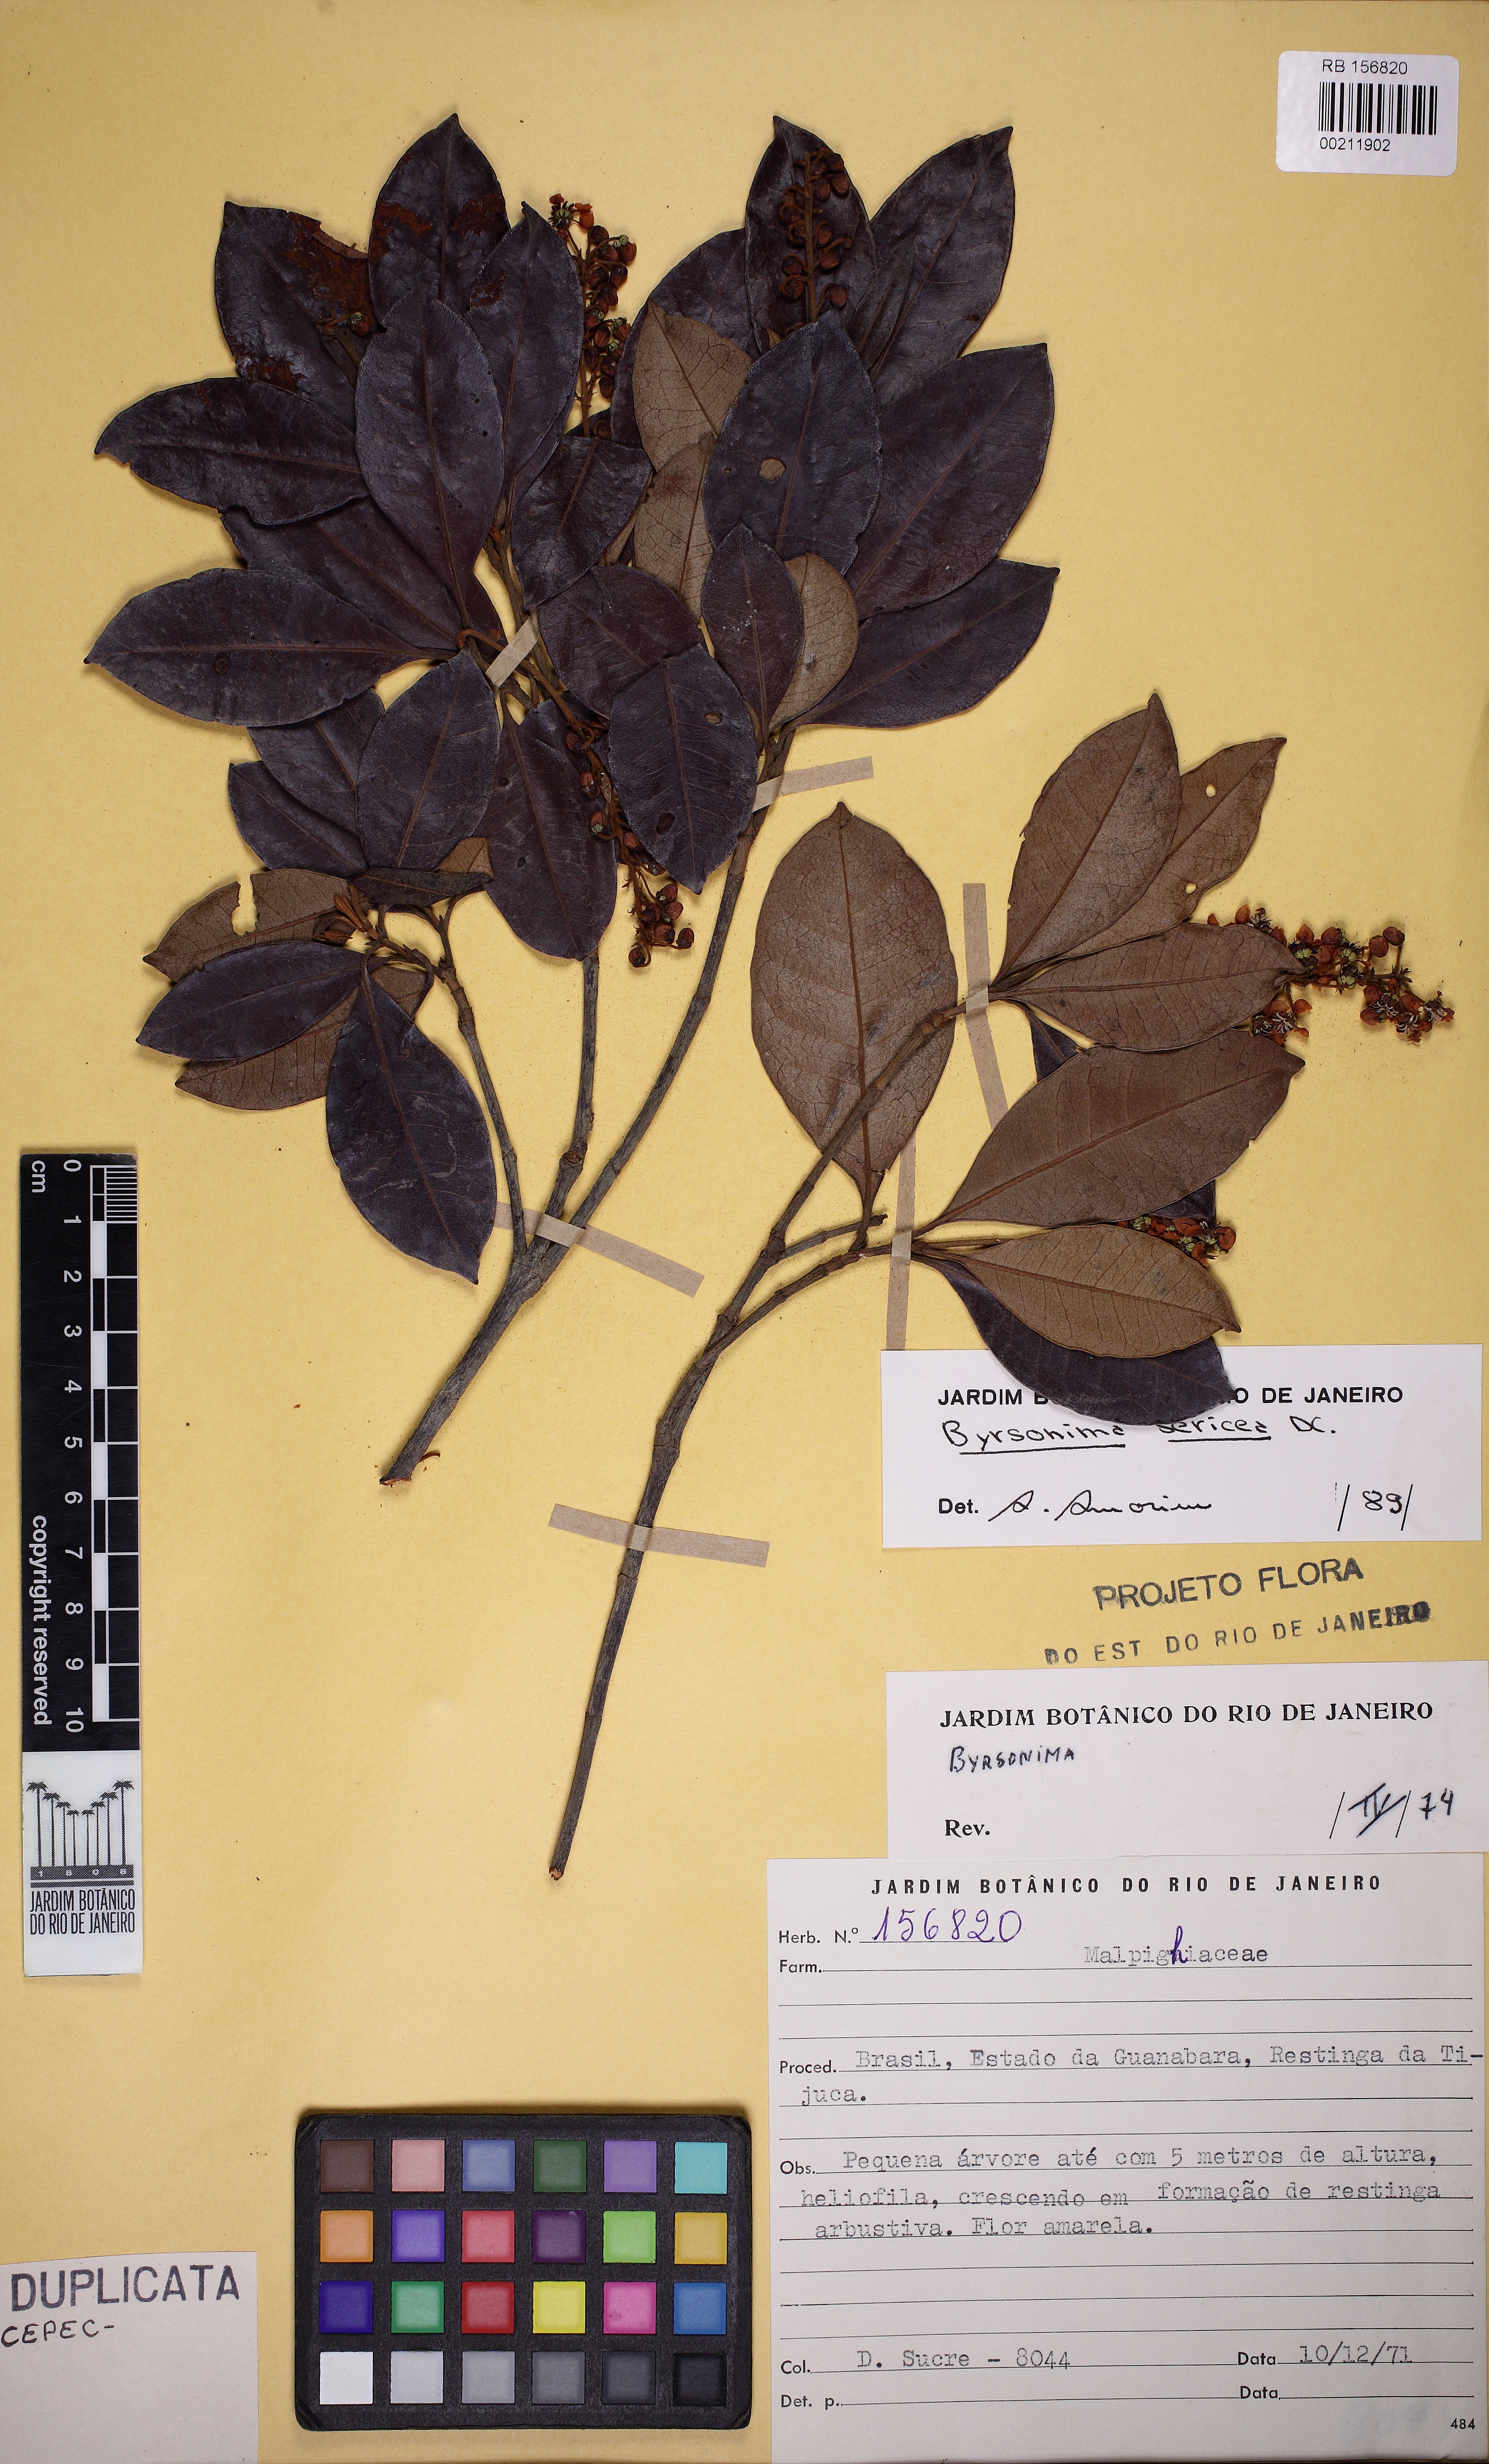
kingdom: Plantae
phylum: Tracheophyta
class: Magnoliopsida
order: Malpighiales
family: Malpighiaceae
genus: Byrsonima
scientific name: Byrsonima sericea
